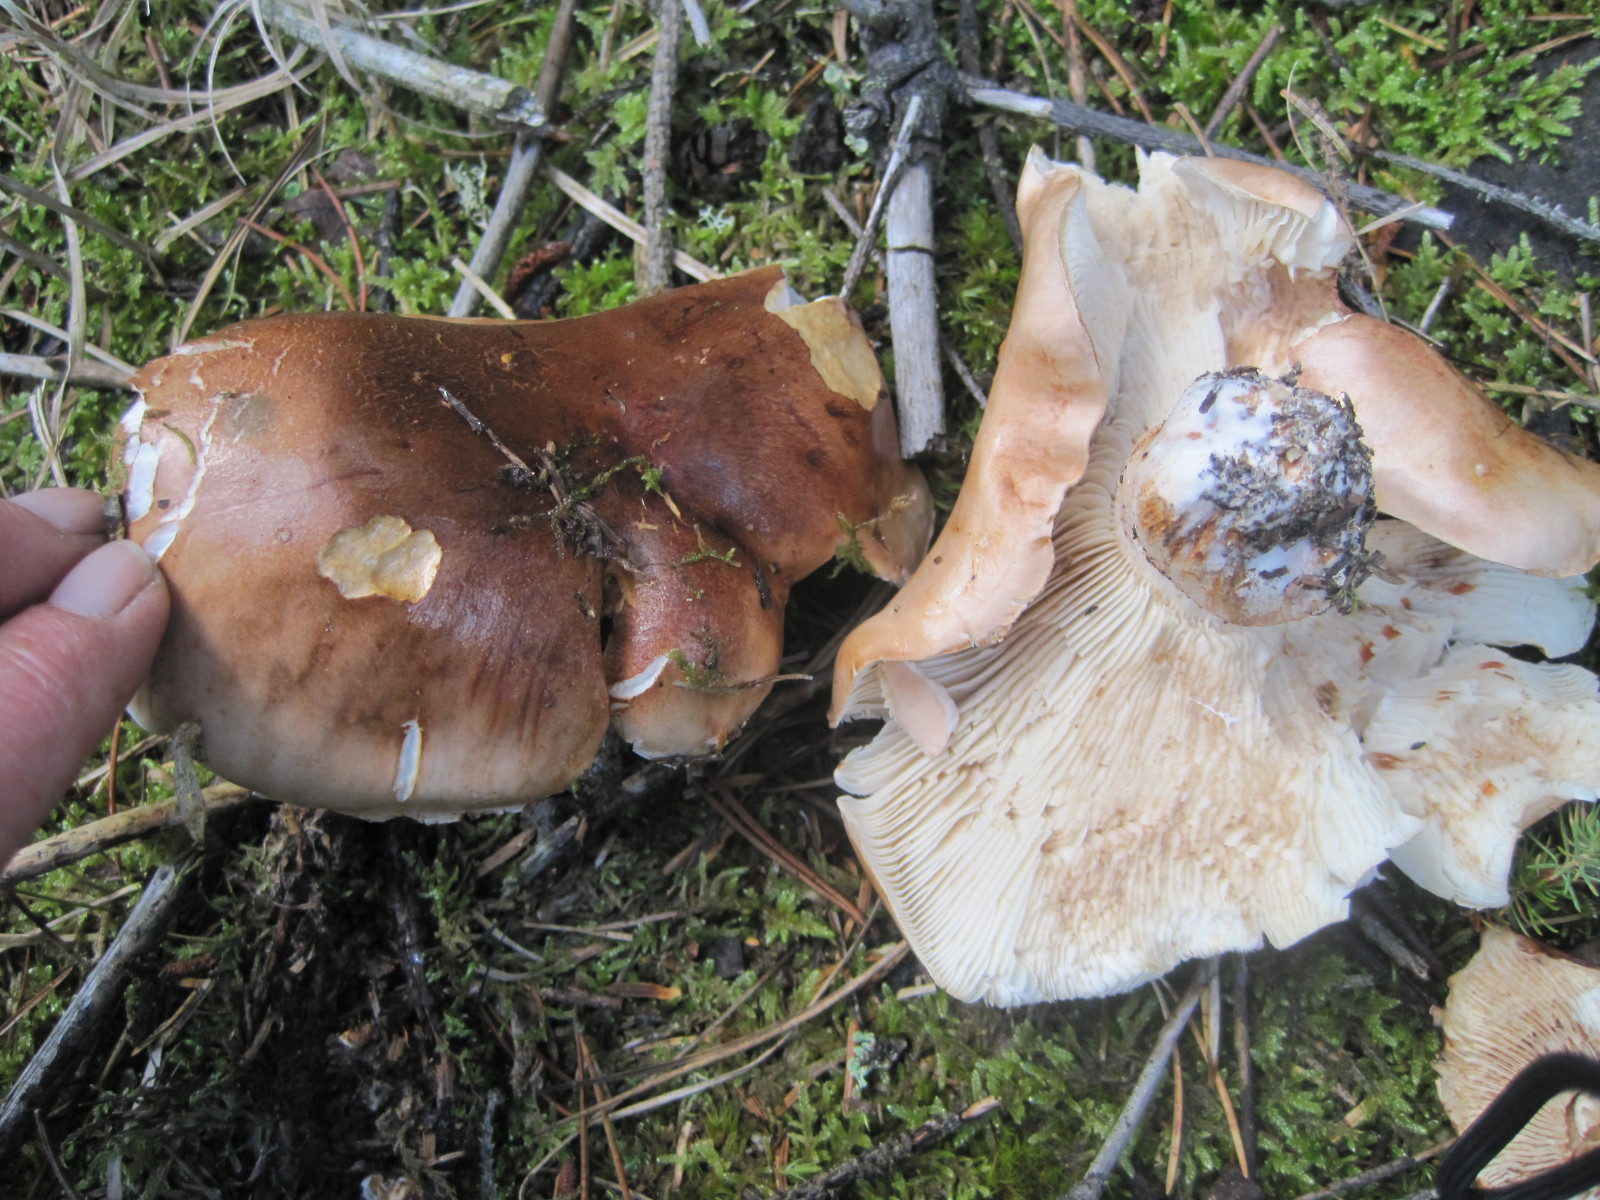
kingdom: Fungi
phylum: Basidiomycota
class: Agaricomycetes
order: Agaricales
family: Tricholomataceae
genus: Tricholoma
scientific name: Tricholoma ustale
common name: sveden ridderhat
